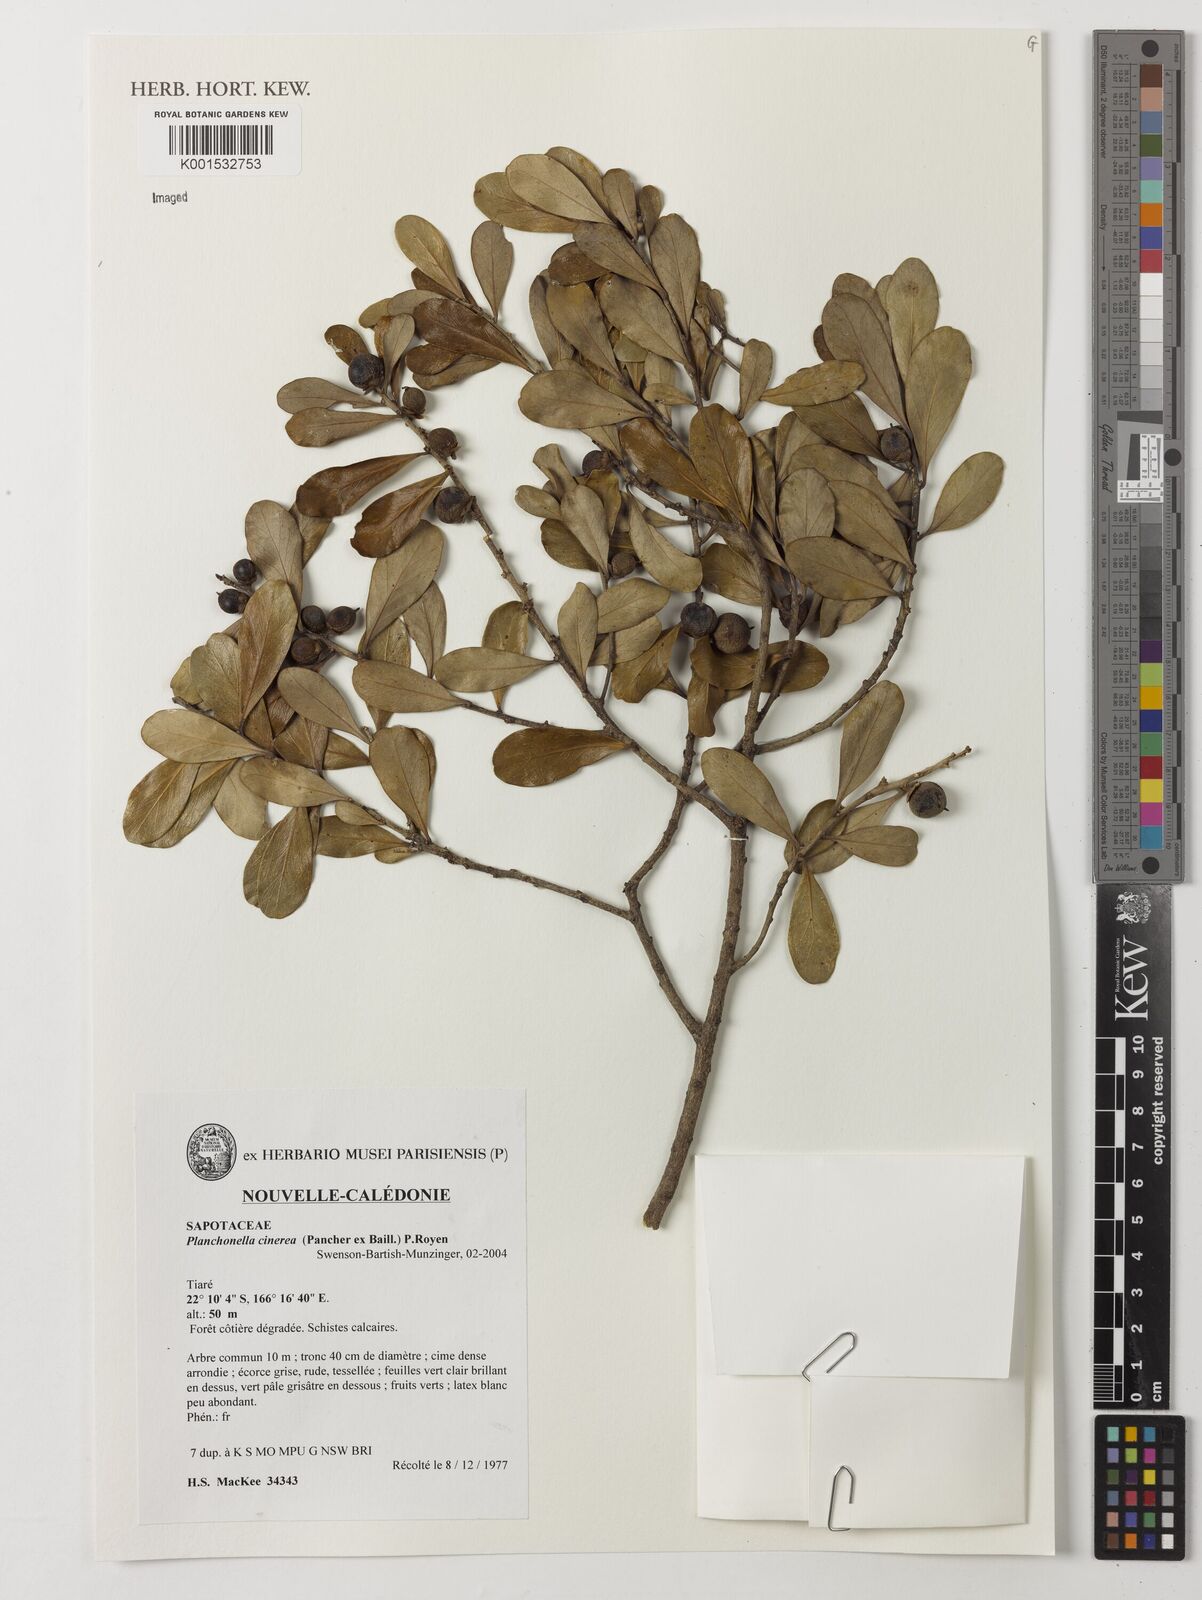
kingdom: Plantae
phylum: Tracheophyta
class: Magnoliopsida
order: Ericales
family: Sapotaceae
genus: Planchonella
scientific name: Planchonella cinerea
